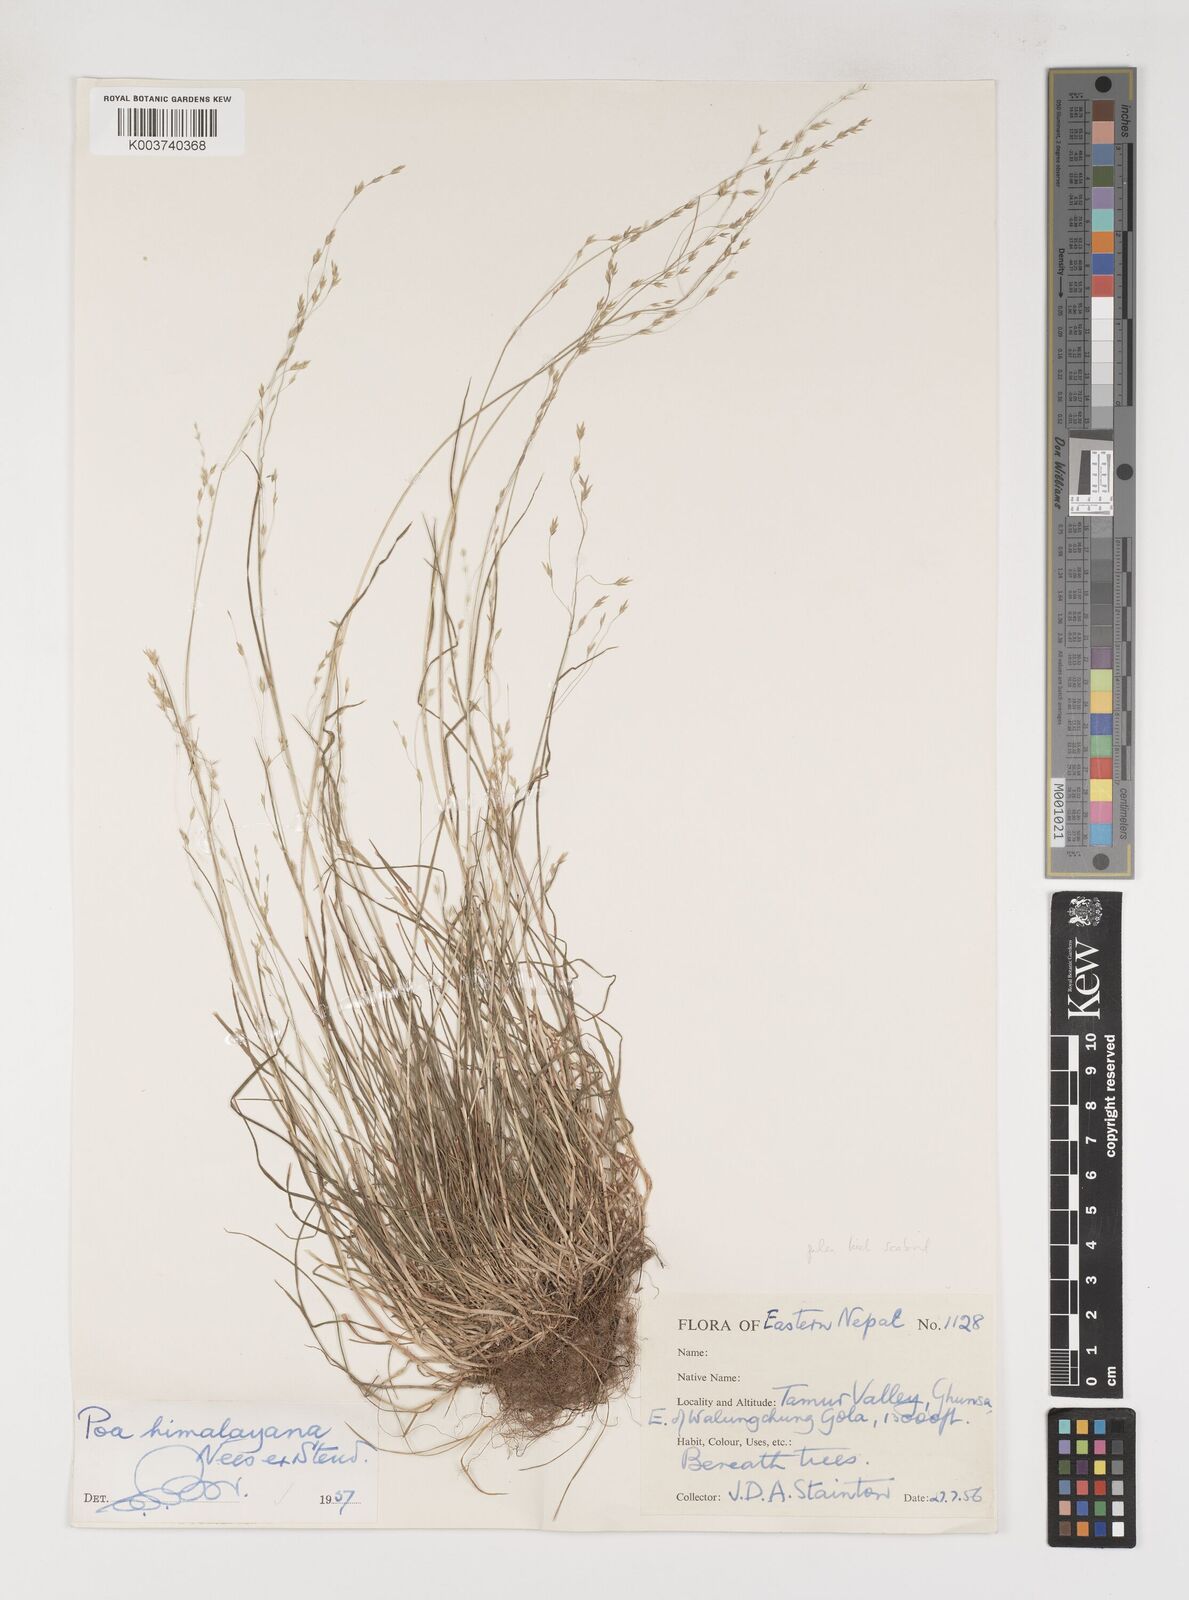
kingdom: Plantae
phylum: Tracheophyta
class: Liliopsida
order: Poales
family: Poaceae
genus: Poa
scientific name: Poa himalayana
